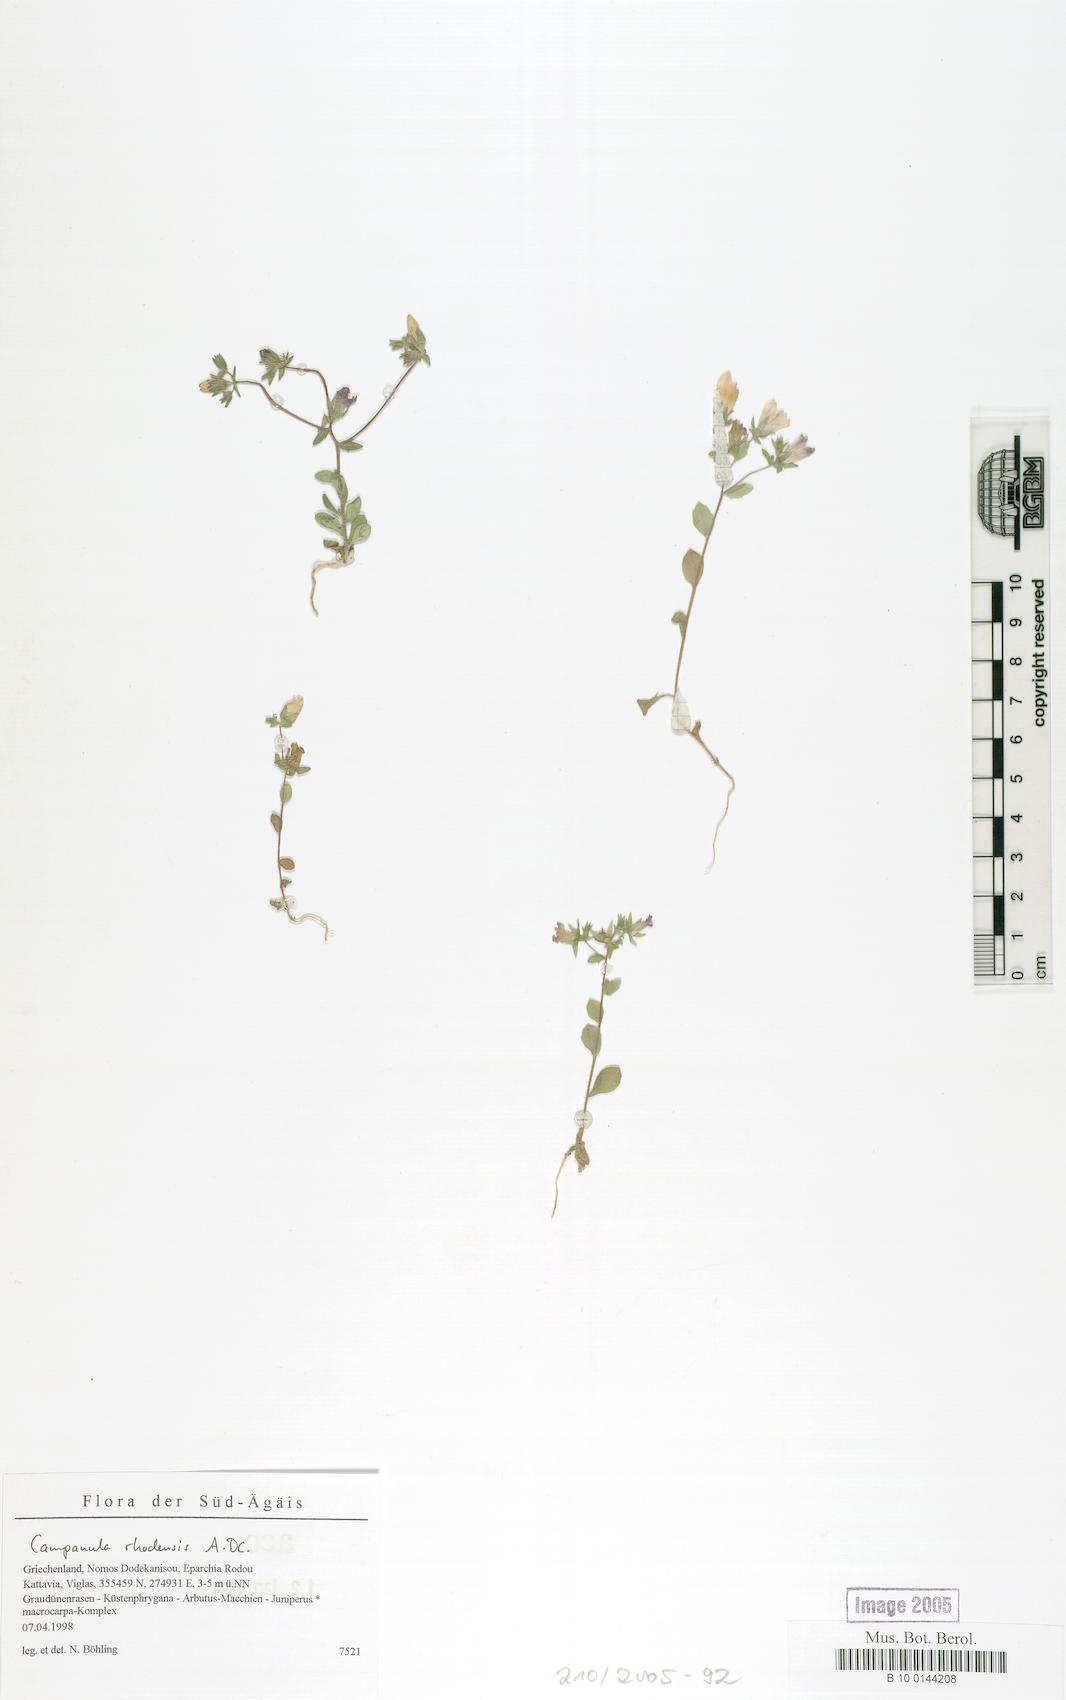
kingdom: Plantae
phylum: Tracheophyta
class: Magnoliopsida
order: Asterales
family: Campanulaceae
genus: Campanula
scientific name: Campanula rhodensis
